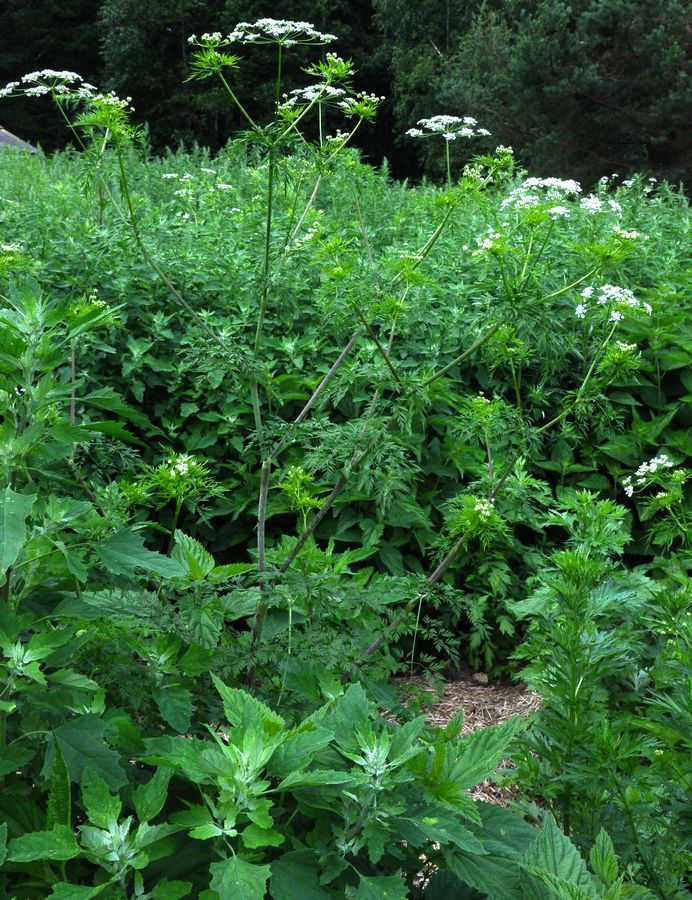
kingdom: Plantae
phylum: Tracheophyta
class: Magnoliopsida
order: Apiales
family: Apiaceae
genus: Chaerophyllum
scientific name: Chaerophyllum bulbosum
